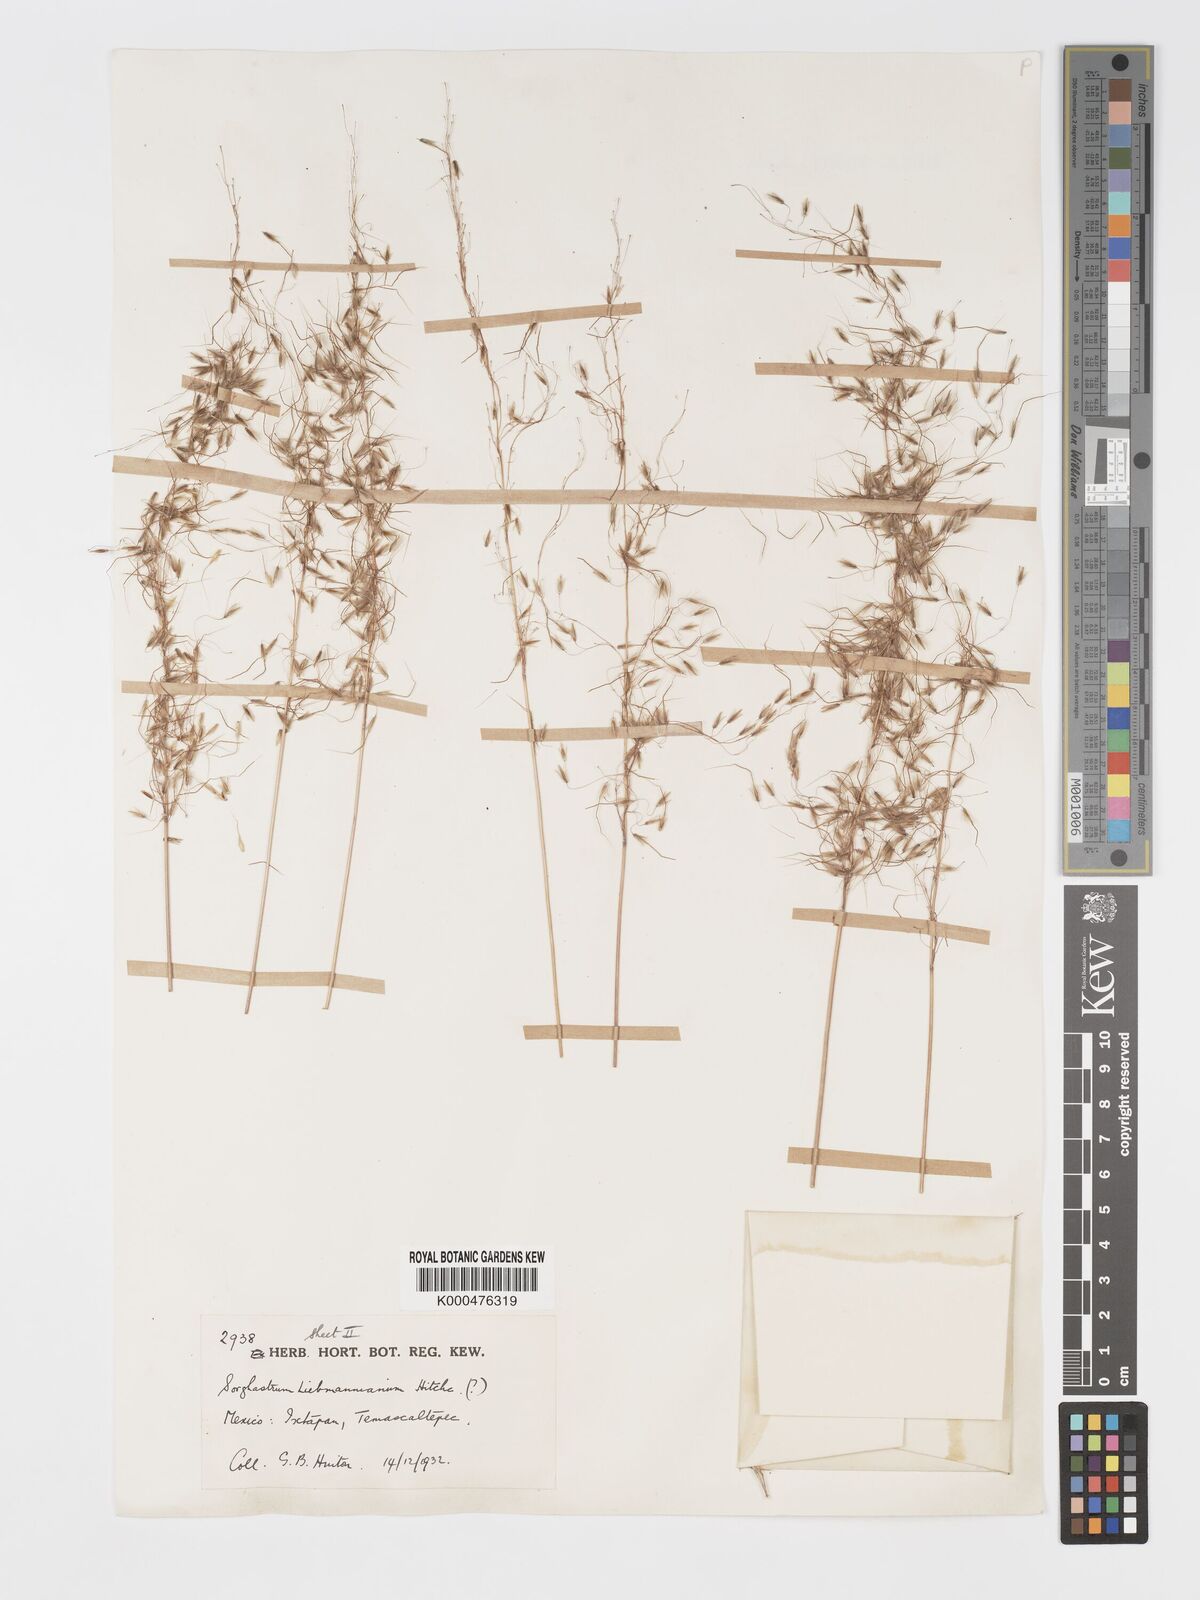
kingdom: Plantae
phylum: Tracheophyta
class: Liliopsida
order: Poales
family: Poaceae
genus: Sorghastrum
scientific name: Sorghastrum incompletum
